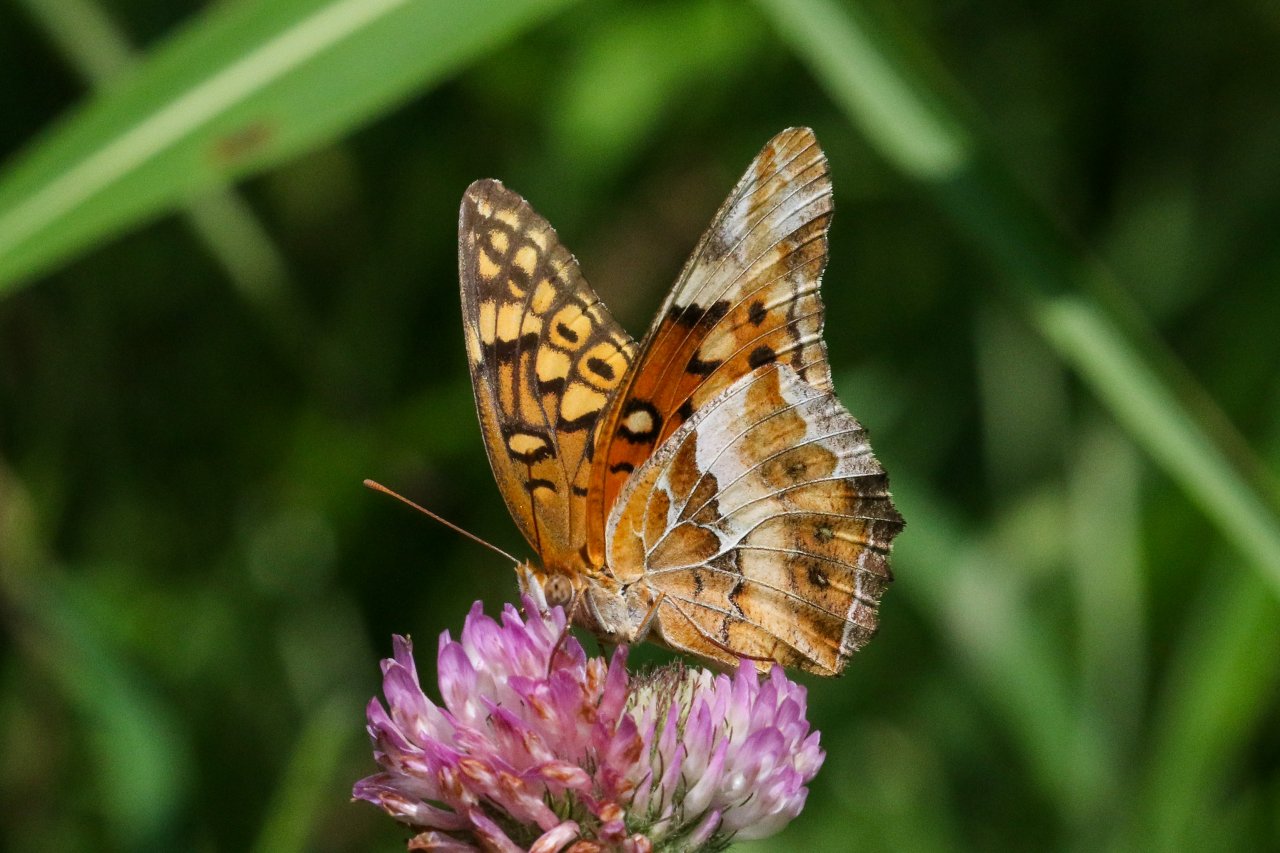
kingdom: Animalia
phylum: Arthropoda
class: Insecta
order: Lepidoptera
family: Nymphalidae
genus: Euptoieta
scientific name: Euptoieta claudia
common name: Variegated Fritillary
